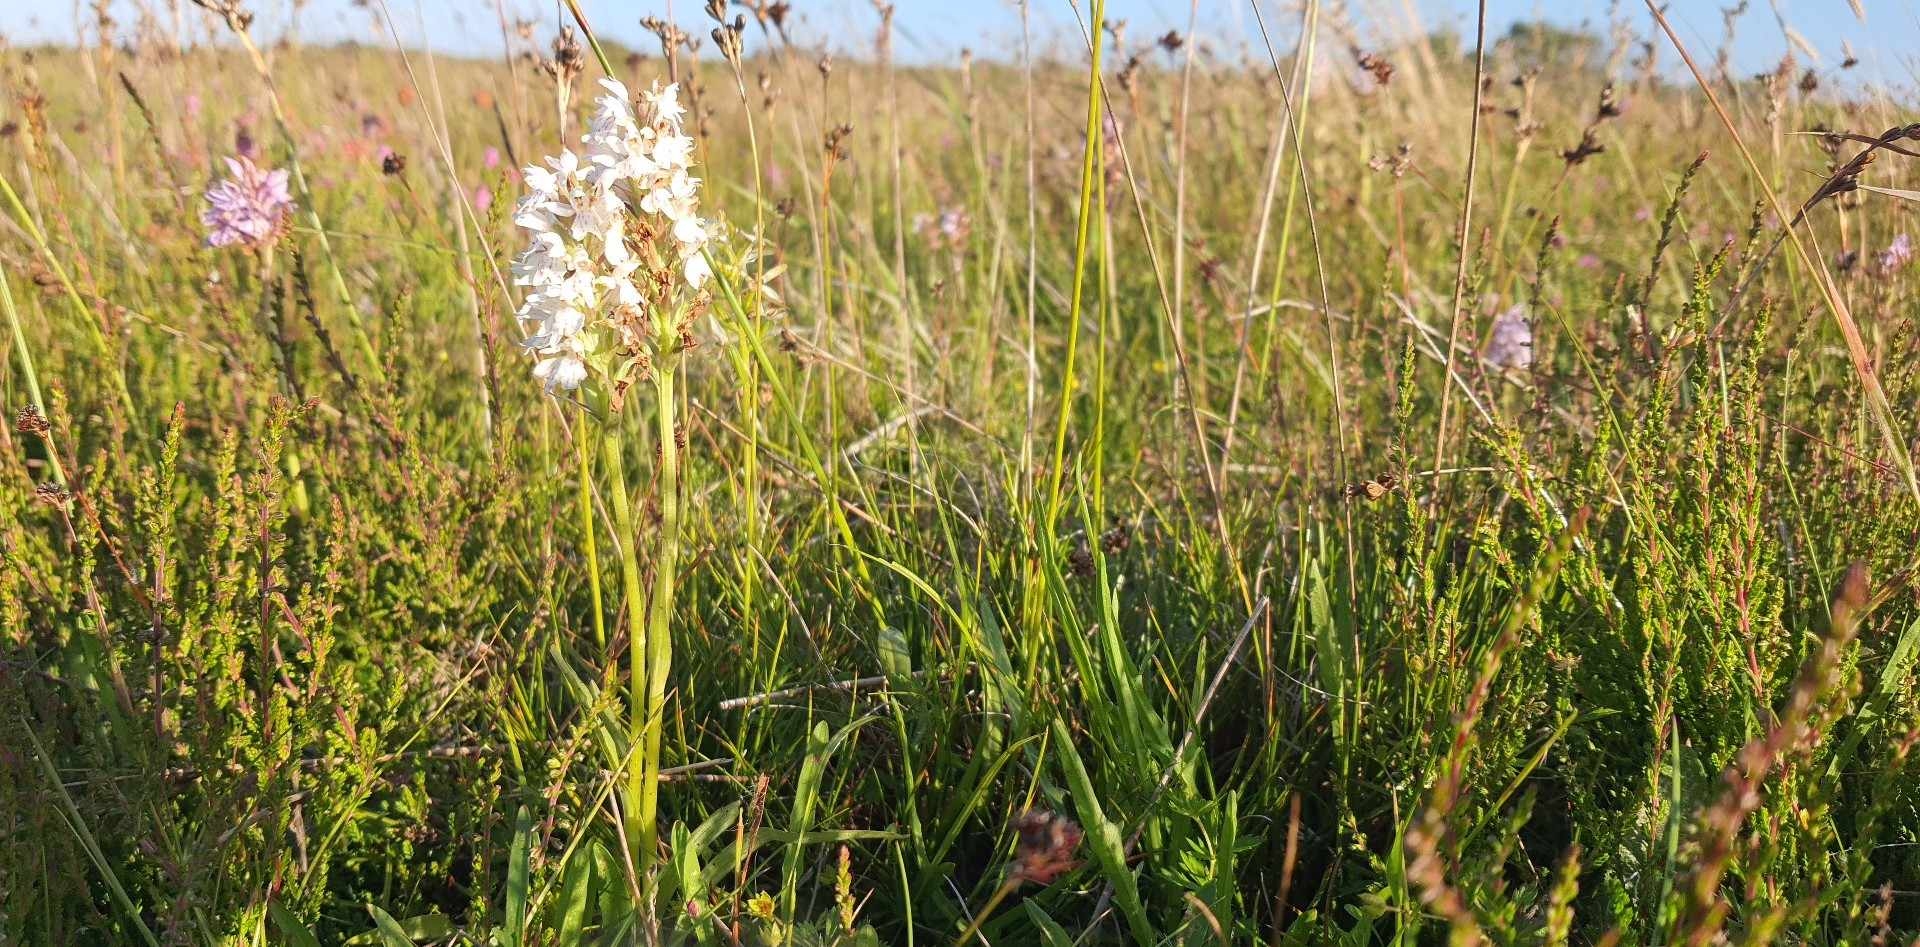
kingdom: Plantae
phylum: Tracheophyta
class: Liliopsida
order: Asparagales
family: Orchidaceae
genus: Dactylorhiza
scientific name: Dactylorhiza maculata
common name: Plettet gøgeurt (underart)
